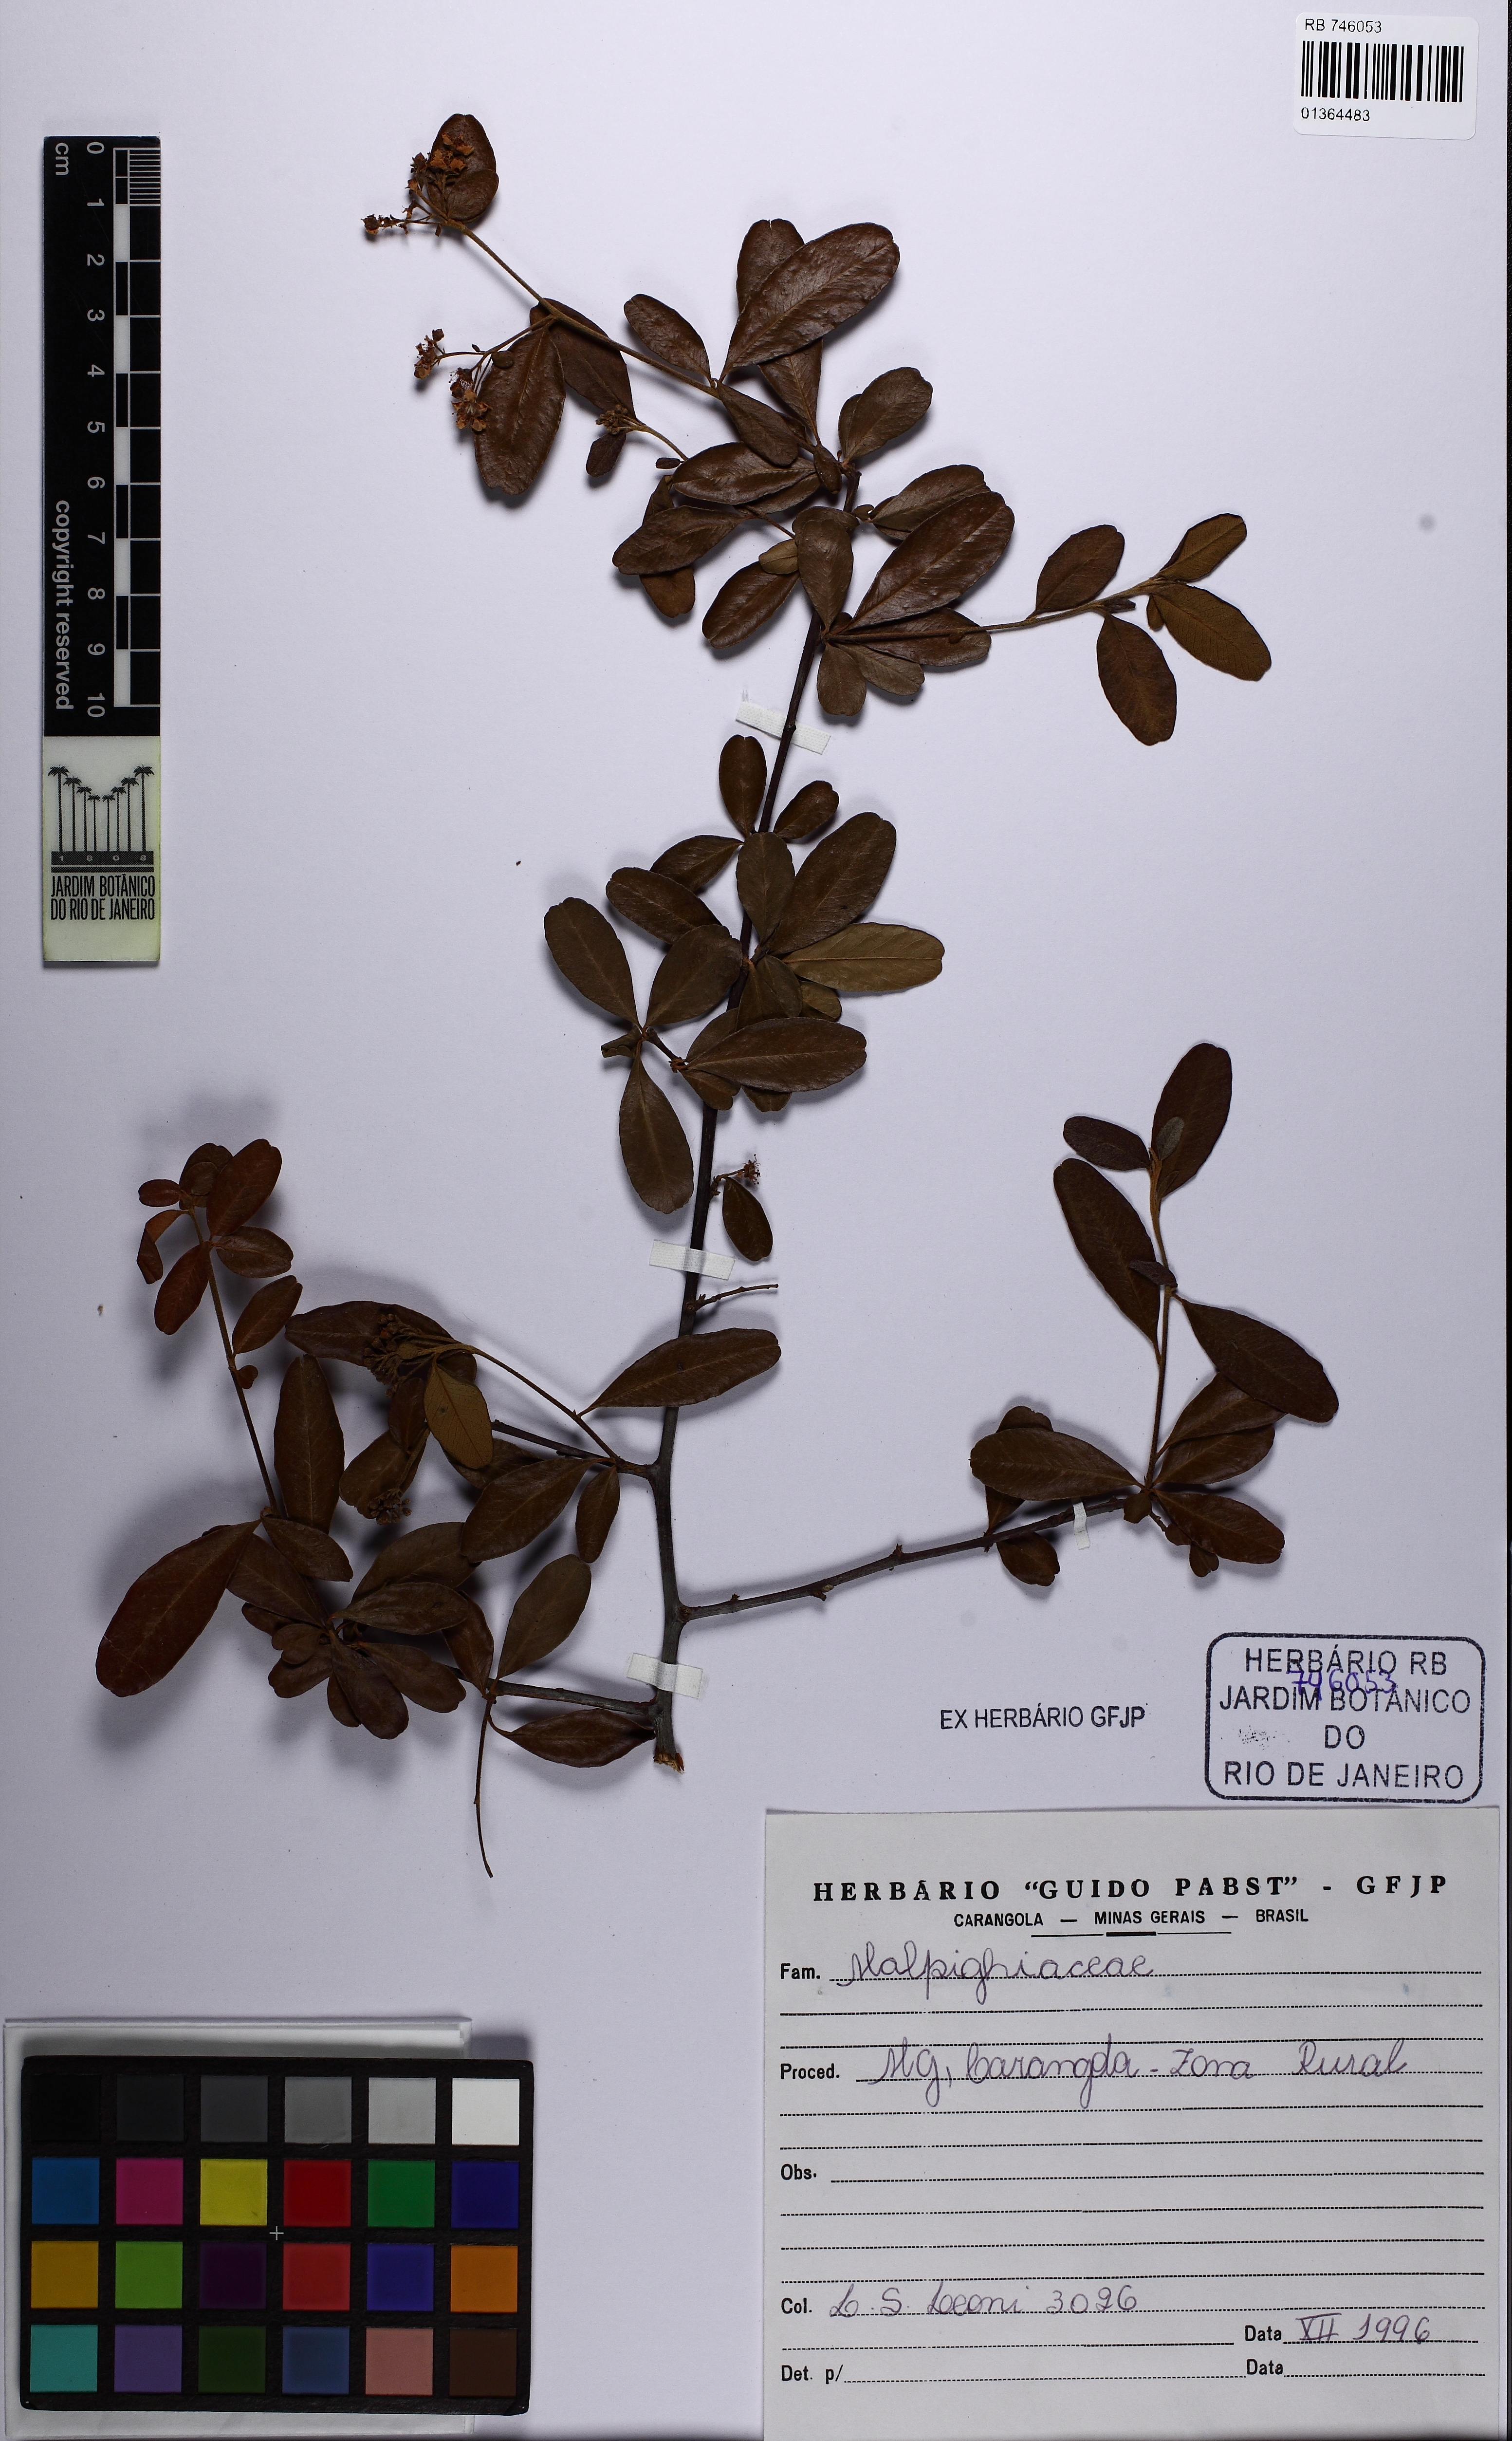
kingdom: Plantae
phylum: Tracheophyta
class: Magnoliopsida
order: Rosales
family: Rosaceae
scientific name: Rosaceae
